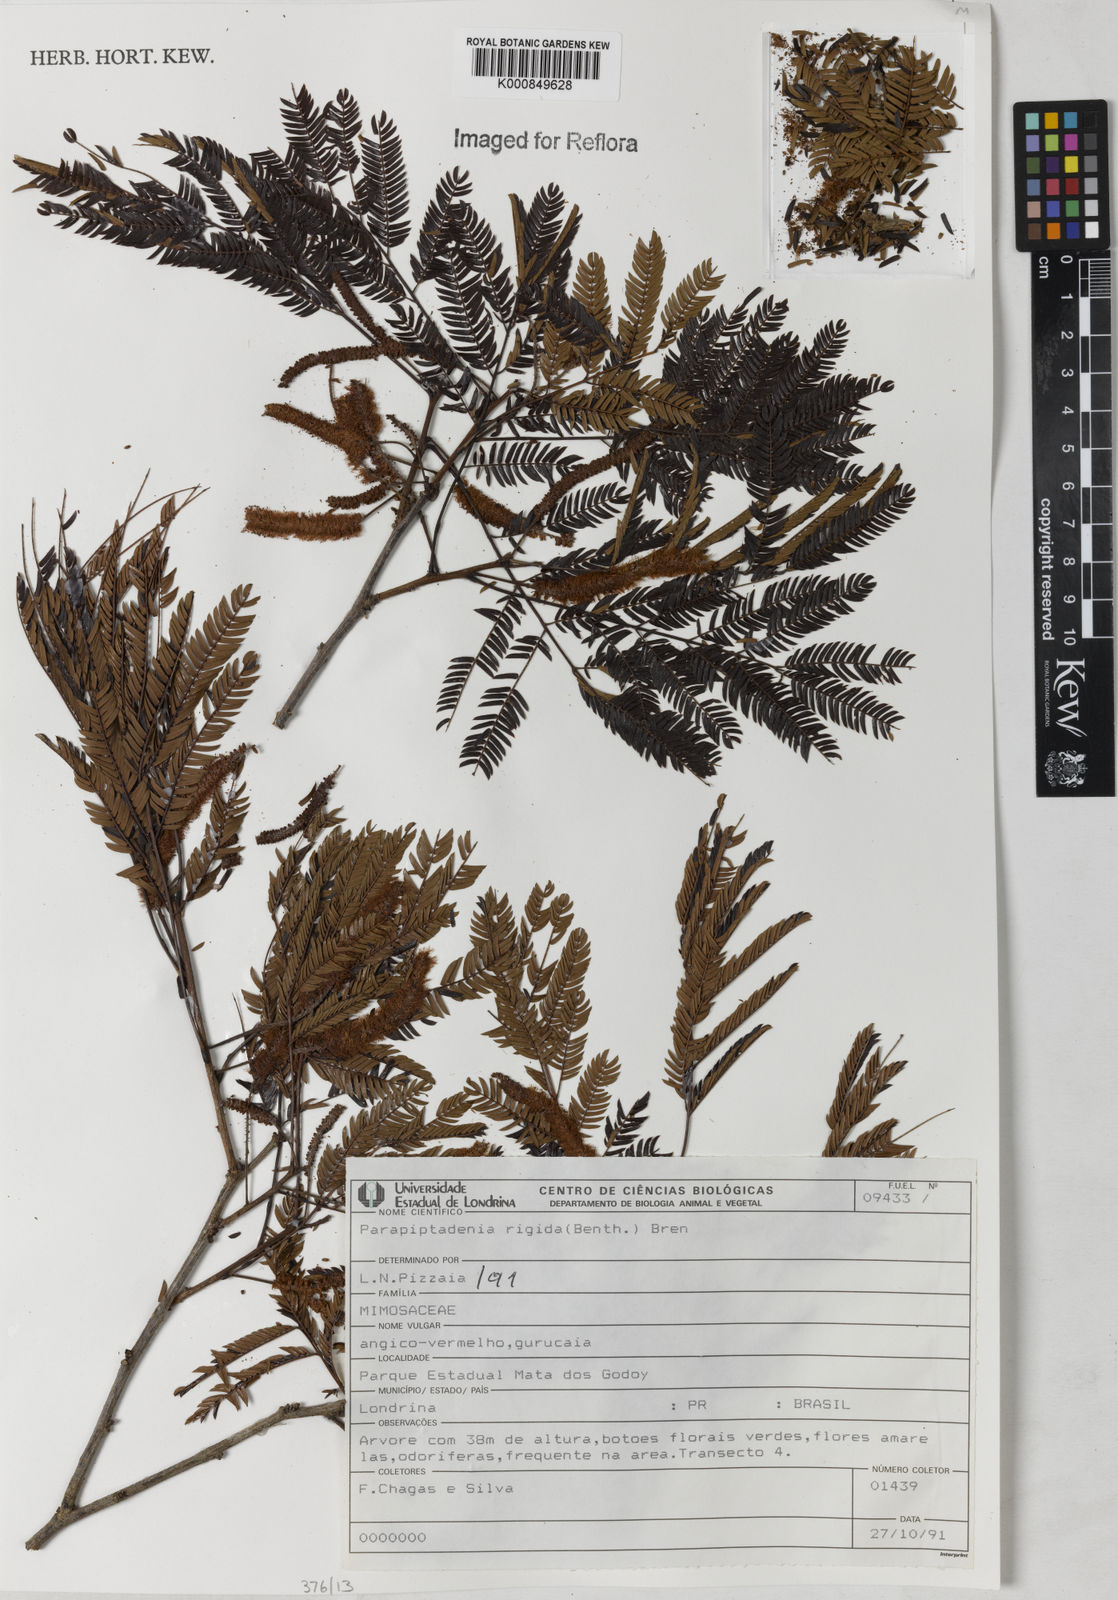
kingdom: Plantae
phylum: Tracheophyta
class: Magnoliopsida
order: Fabales
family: Fabaceae
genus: Parapiptadenia
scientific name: Parapiptadenia rigida
